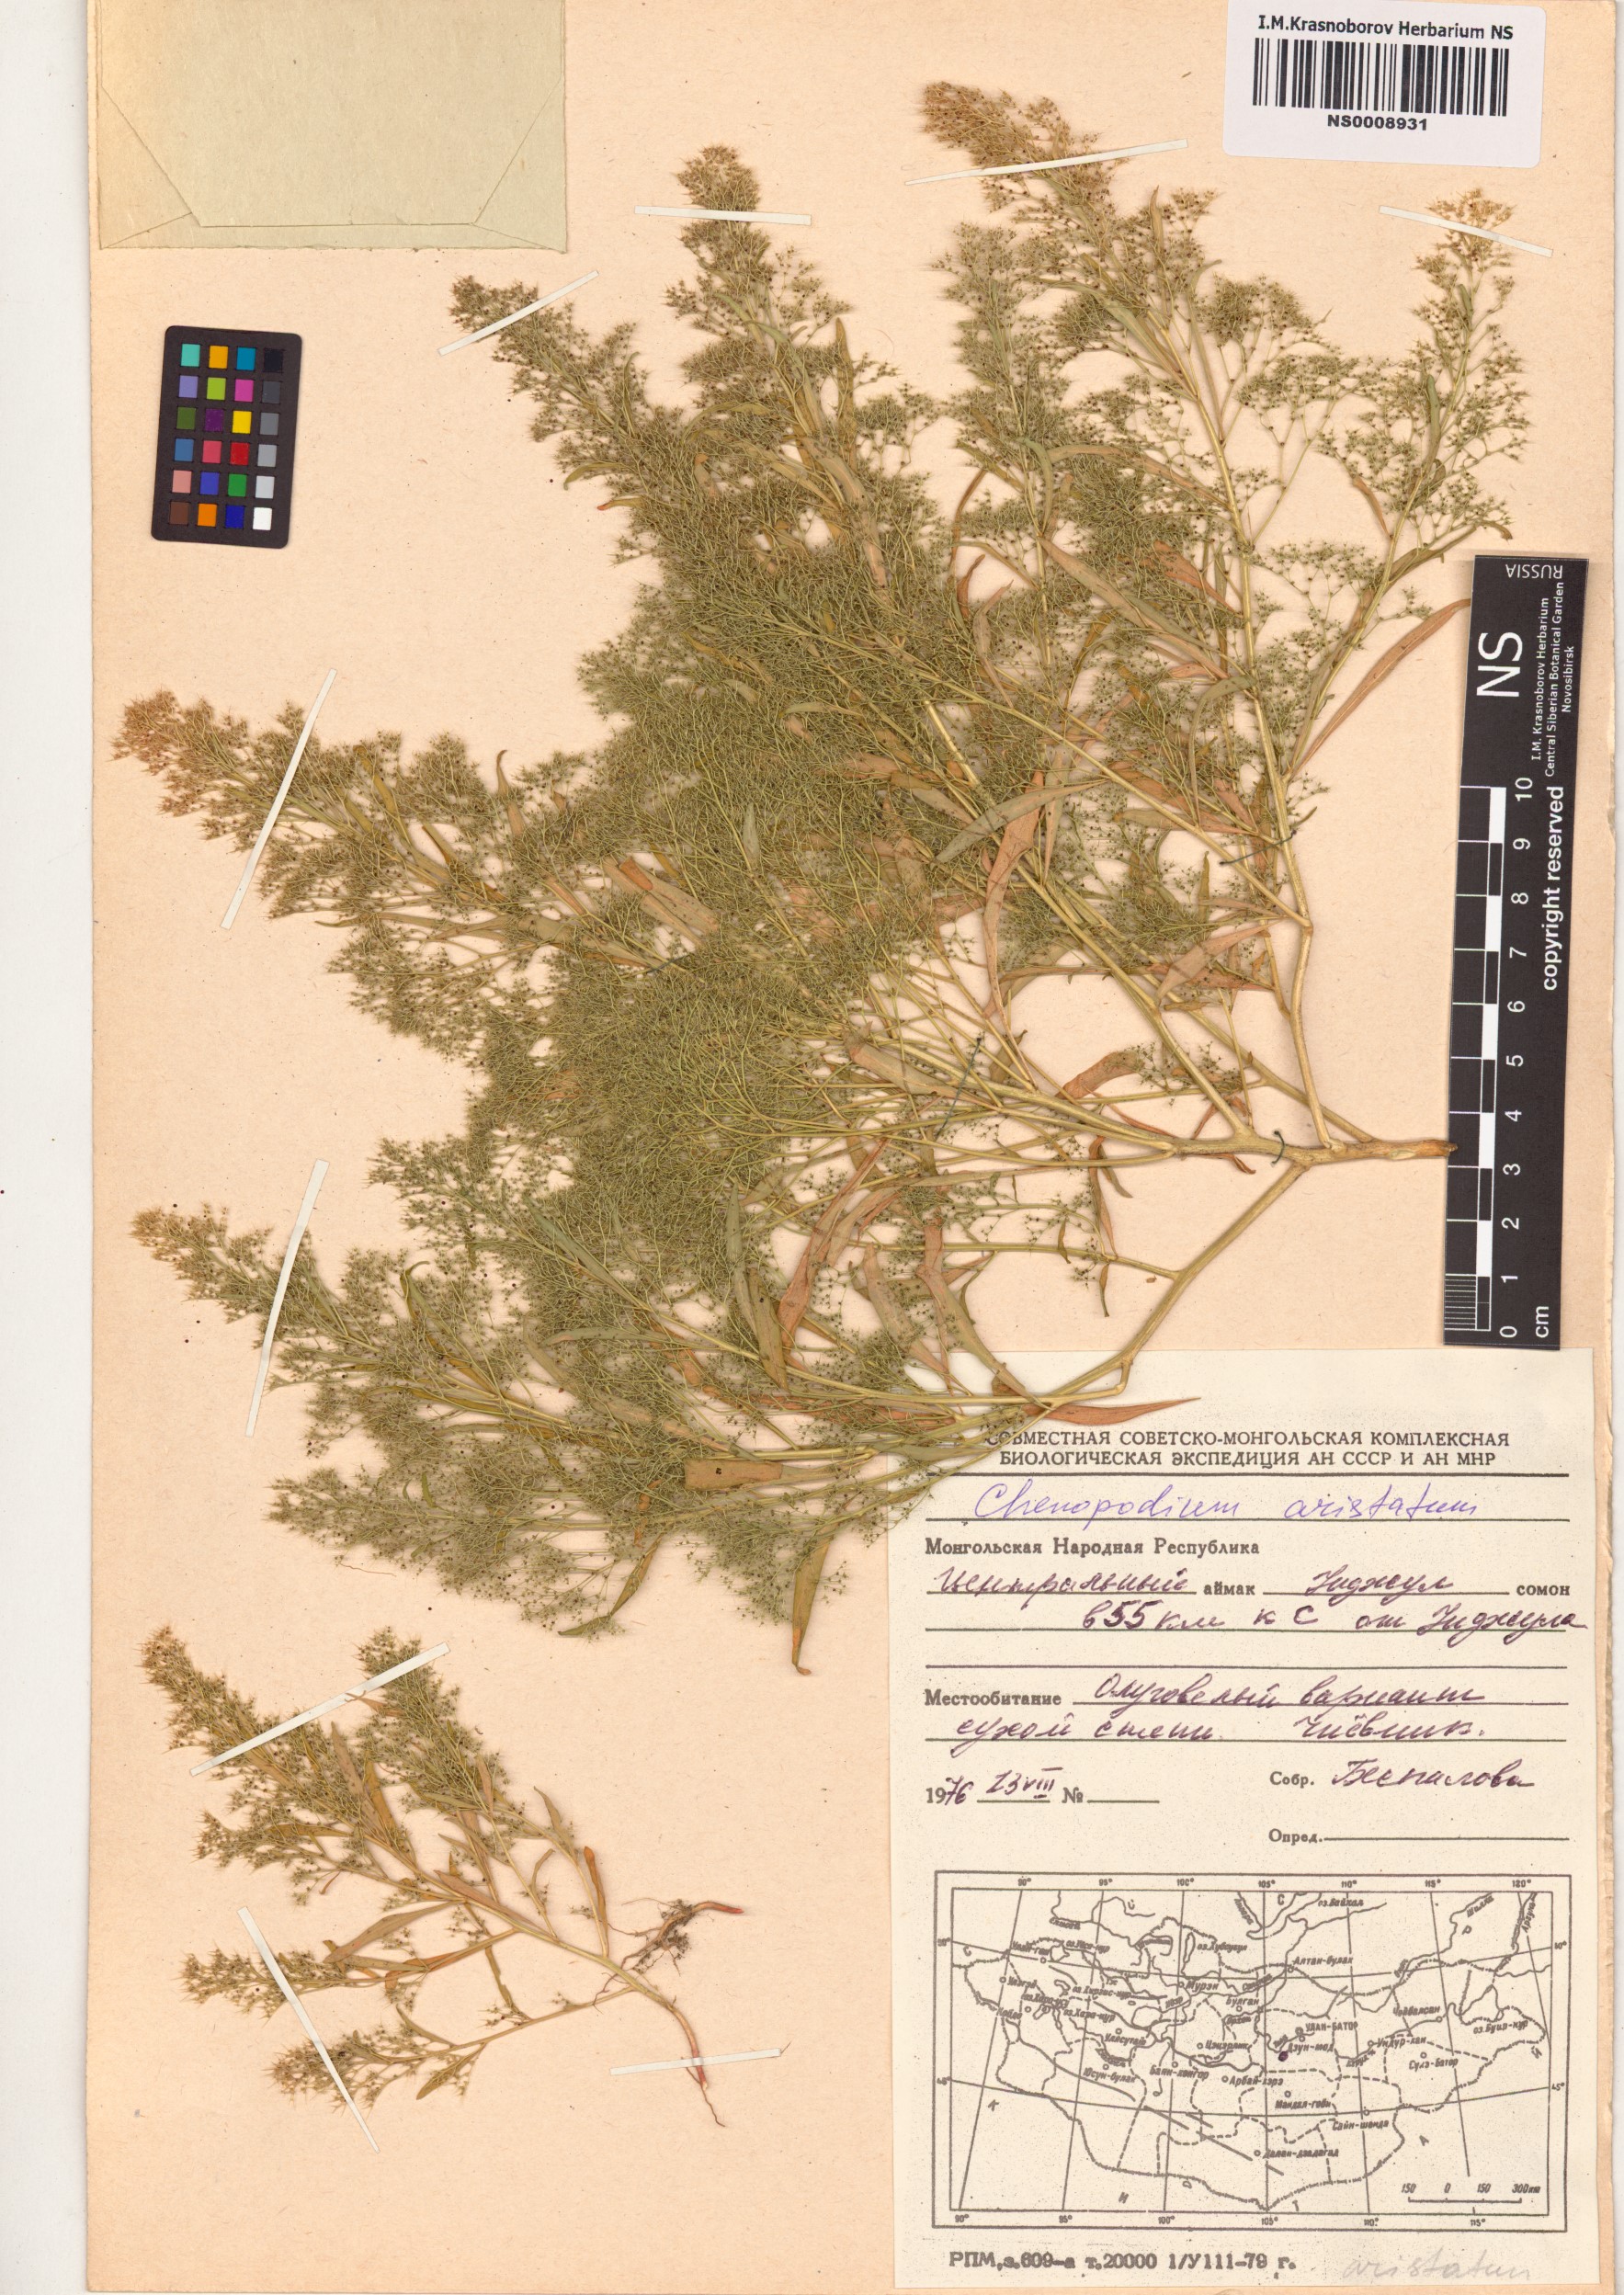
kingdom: Plantae
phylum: Tracheophyta
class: Magnoliopsida
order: Caryophyllales
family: Amaranthaceae
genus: Teloxys
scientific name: Teloxys aristata
